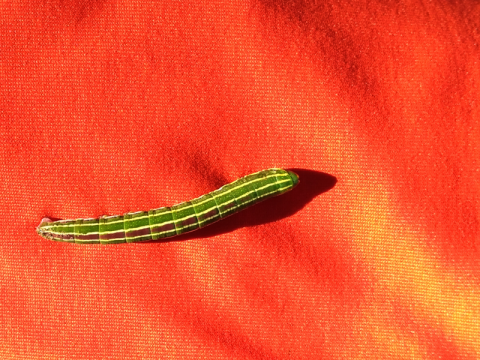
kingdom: Animalia
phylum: Arthropoda
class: Insecta
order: Lepidoptera
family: Nymphalidae
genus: Opsiphanes
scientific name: Opsiphanes cassina
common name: Split-banded Owl-Butterfly
